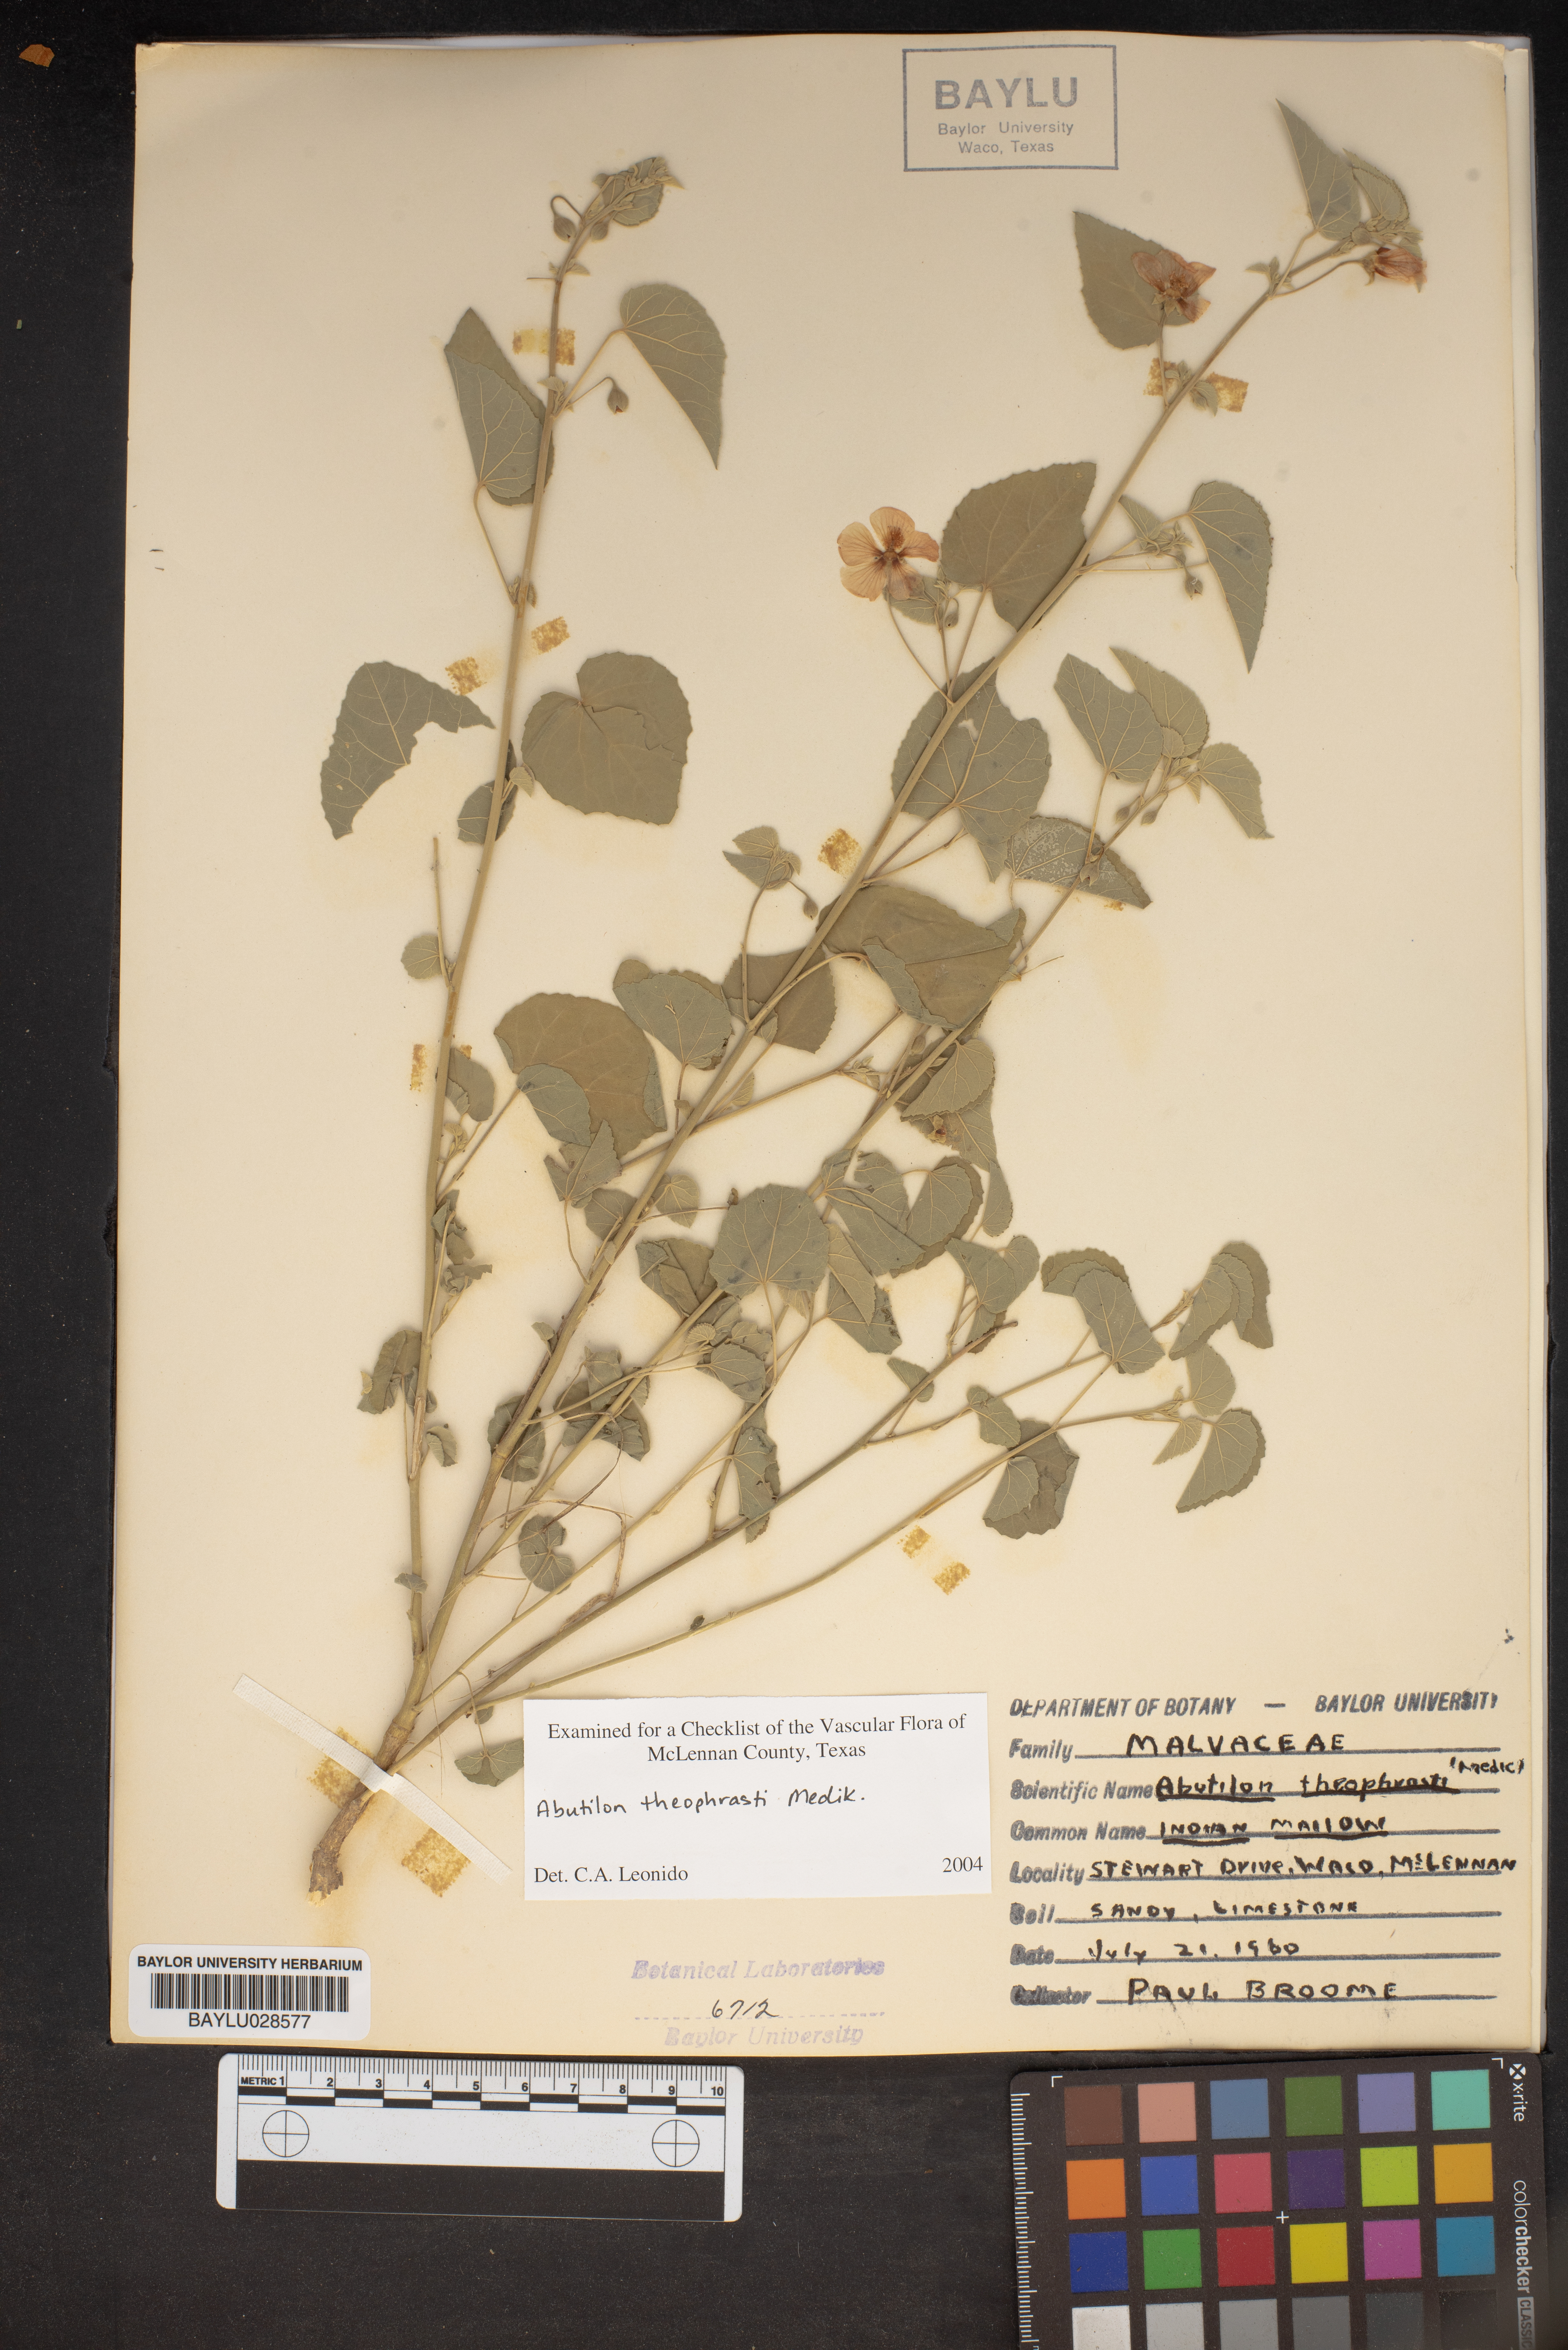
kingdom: Plantae
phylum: Tracheophyta
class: Magnoliopsida
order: Malvales
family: Malvaceae
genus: Abutilon
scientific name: Abutilon theophrasti
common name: Velvetleaf
